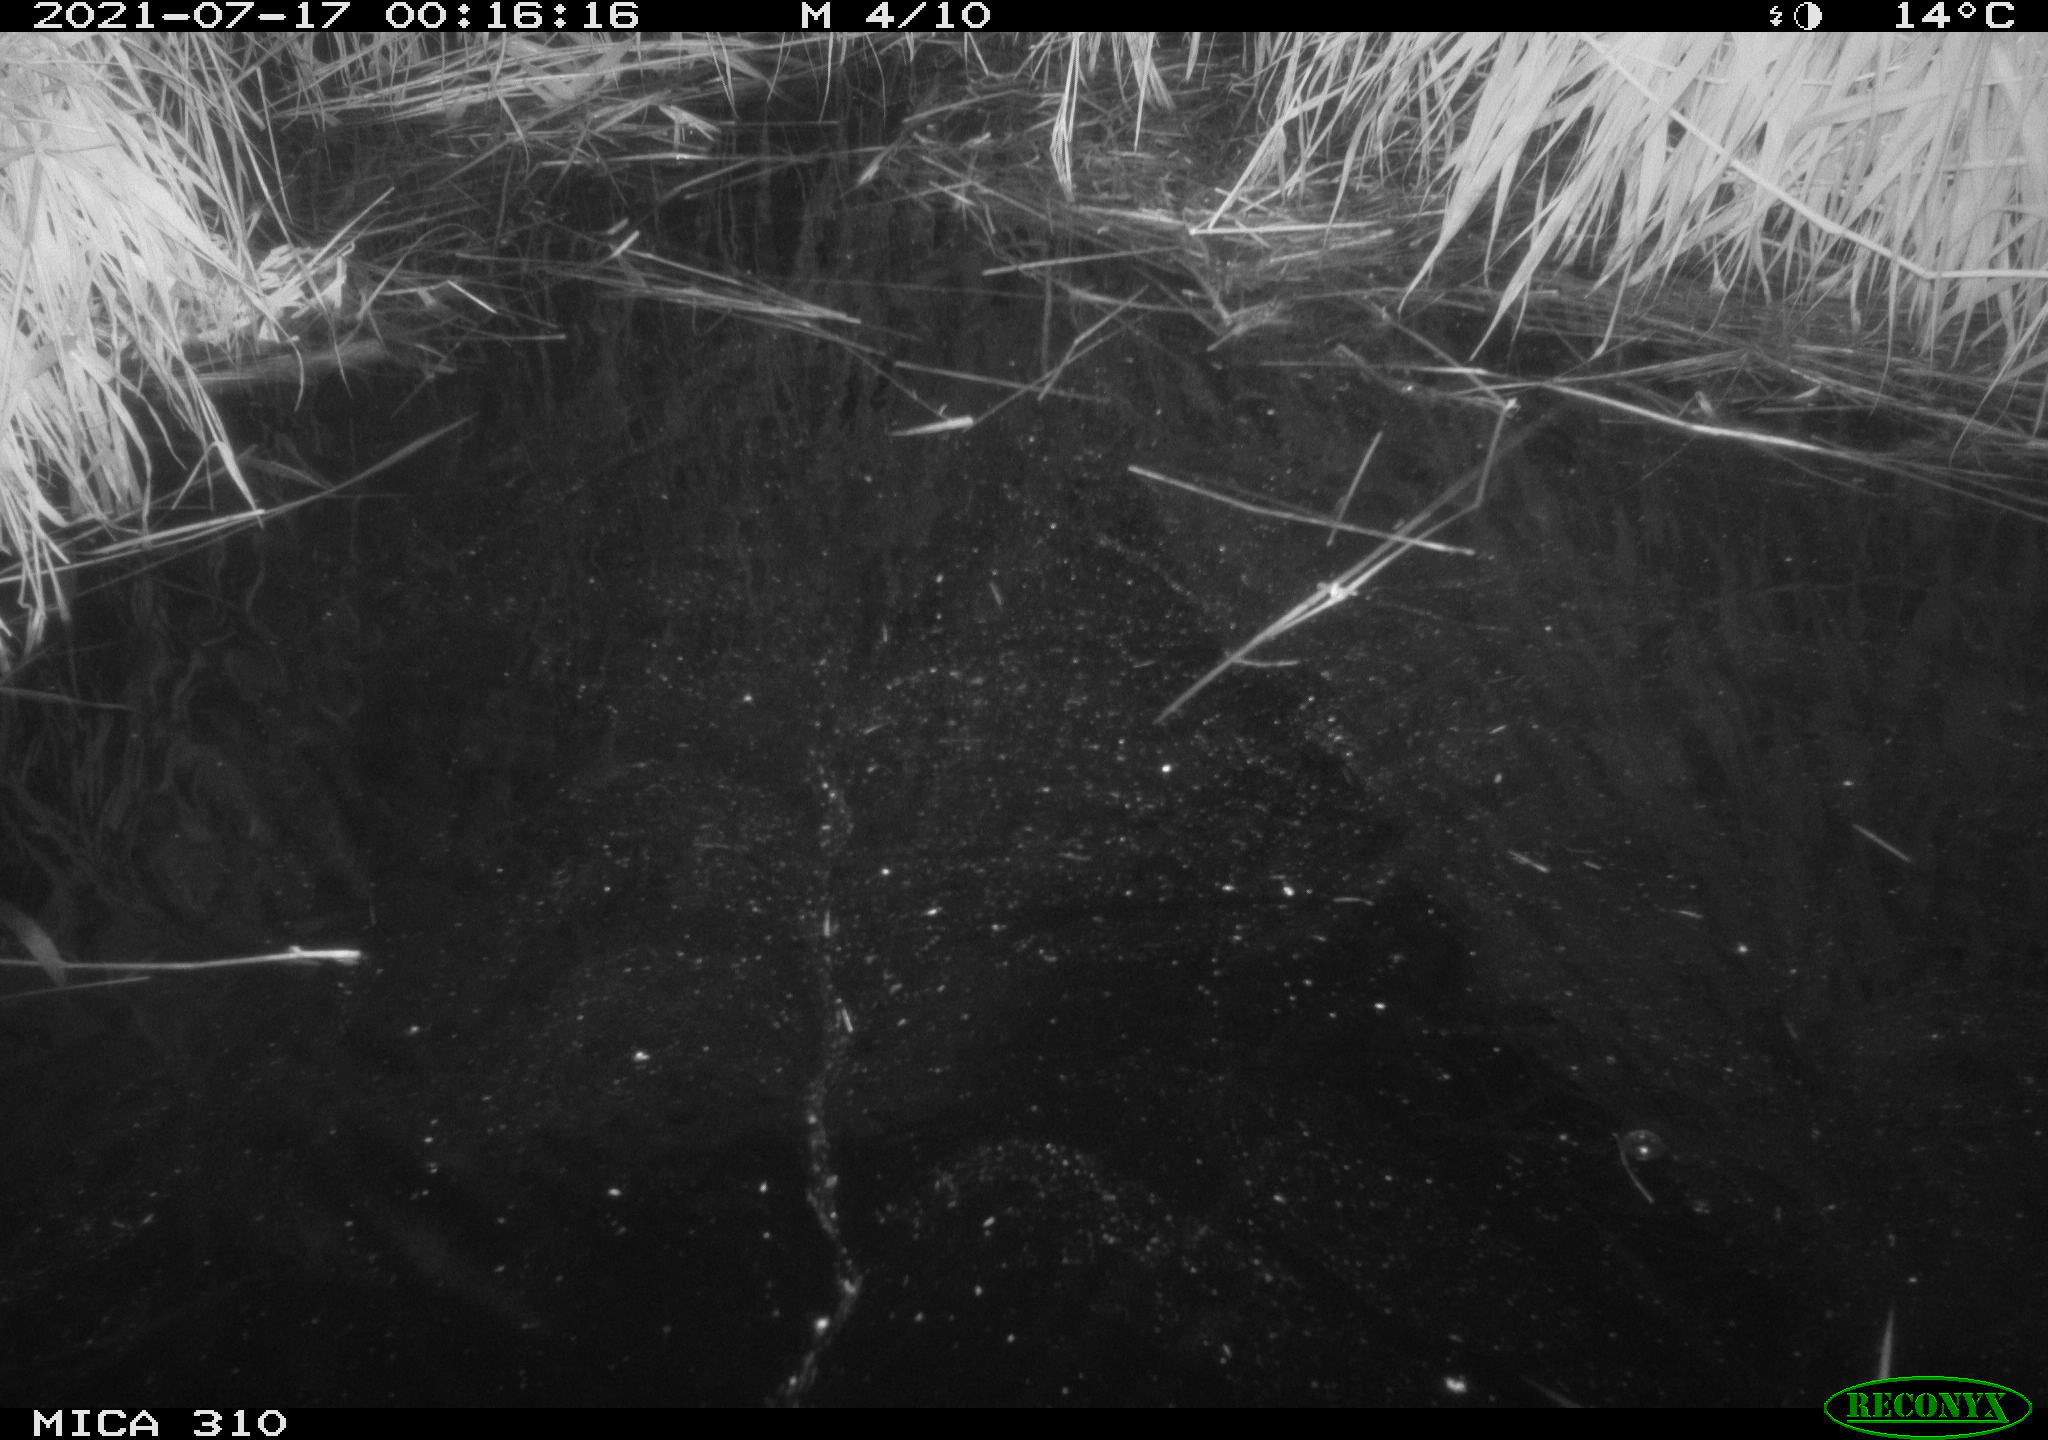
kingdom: Animalia
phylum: Chordata
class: Aves
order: Anseriformes
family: Anatidae
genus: Anas
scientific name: Anas platyrhynchos
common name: Mallard
